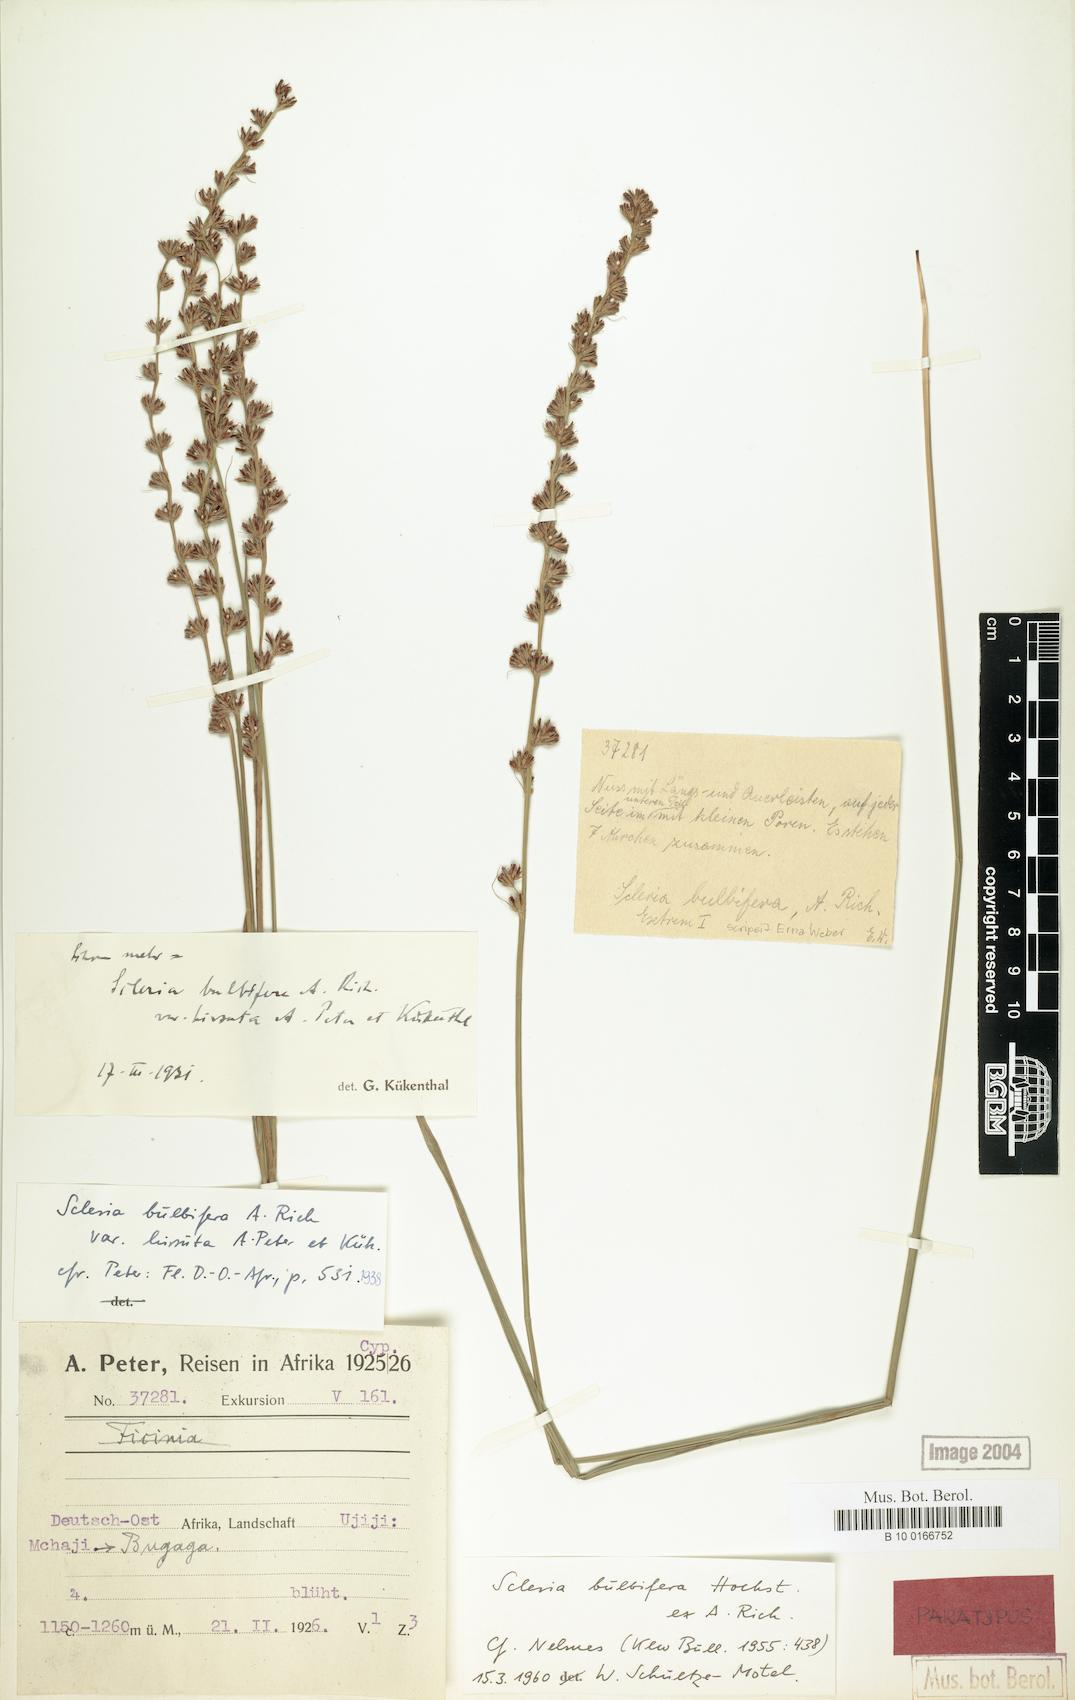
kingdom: Plantae
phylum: Tracheophyta
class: Liliopsida
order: Poales
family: Cyperaceae
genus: Scleria
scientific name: Scleria bulbifera
